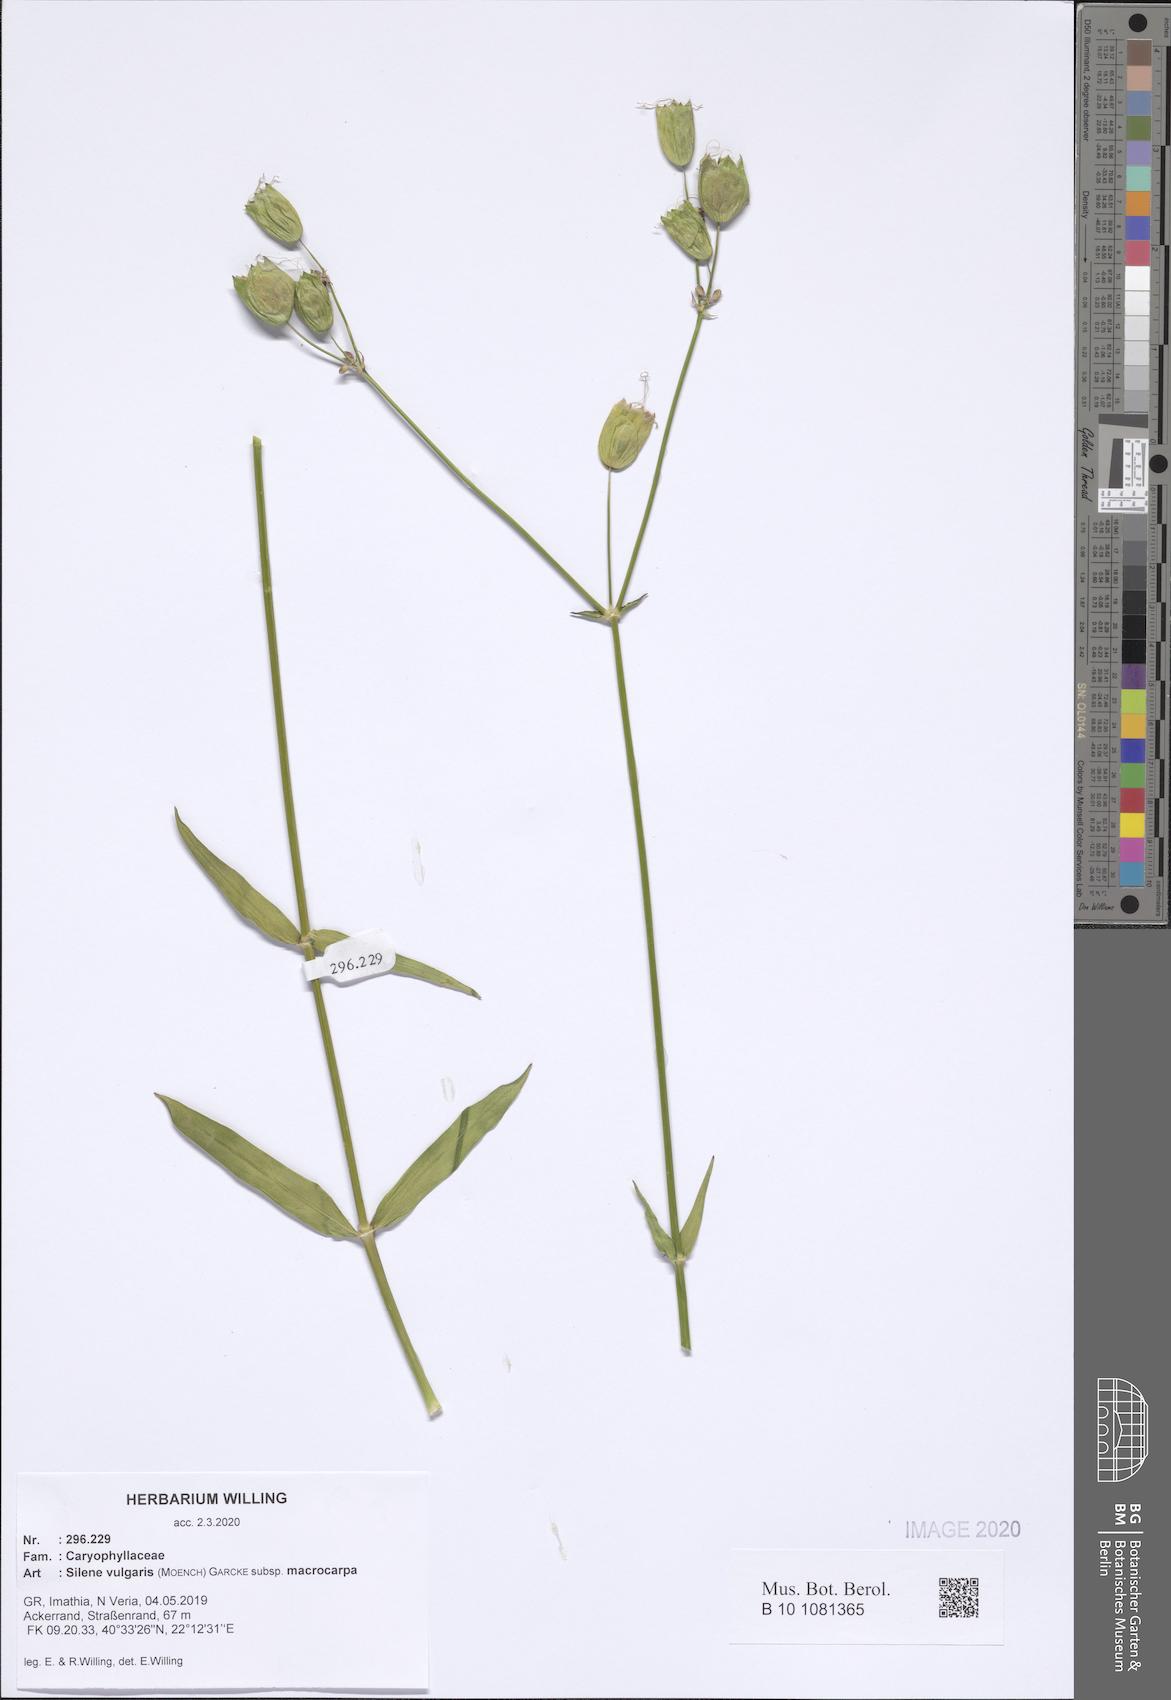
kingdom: Plantae
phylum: Tracheophyta
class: Magnoliopsida
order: Caryophyllales
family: Caryophyllaceae
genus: Silene
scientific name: Silene vulgaris
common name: Bladder campion
